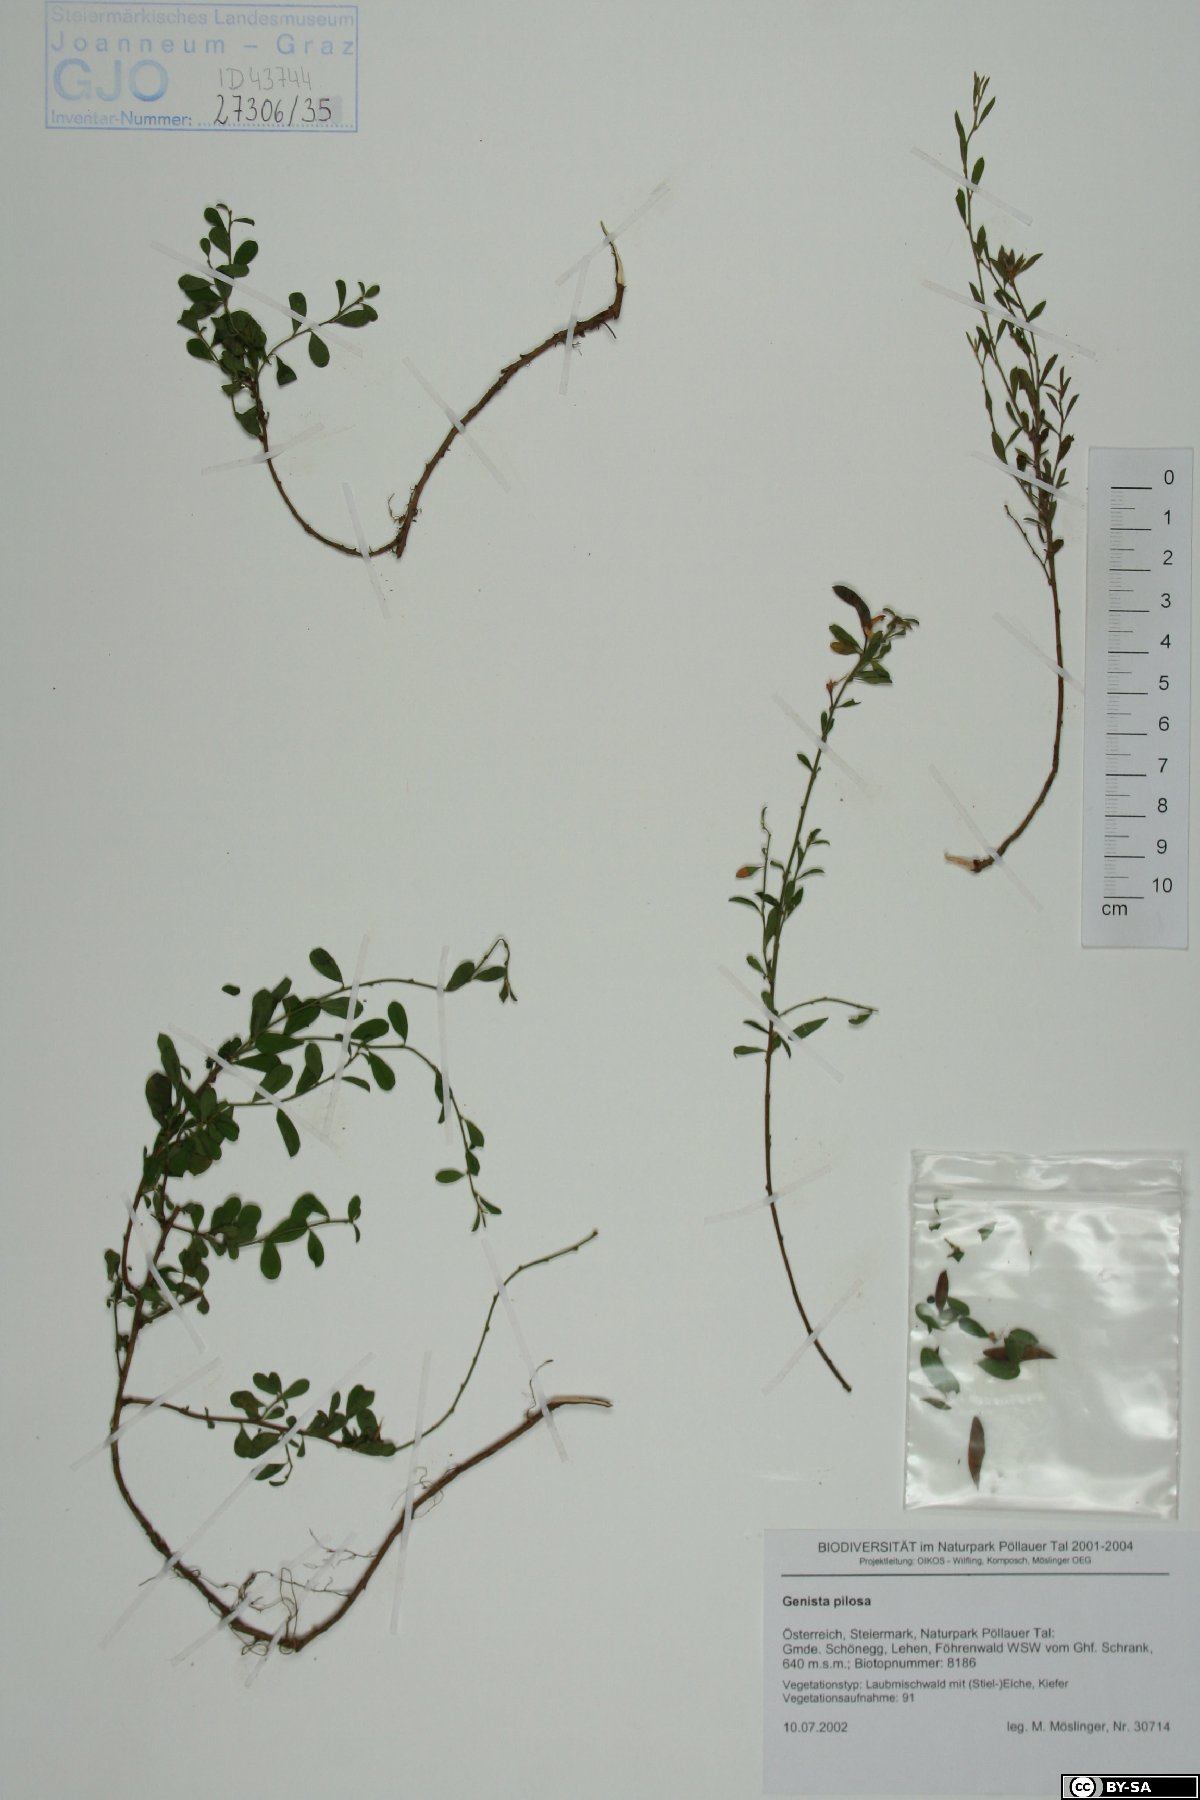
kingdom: Plantae
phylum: Tracheophyta
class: Magnoliopsida
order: Fabales
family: Fabaceae
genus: Genista
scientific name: Genista pilosa
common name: Hairy greenweed
